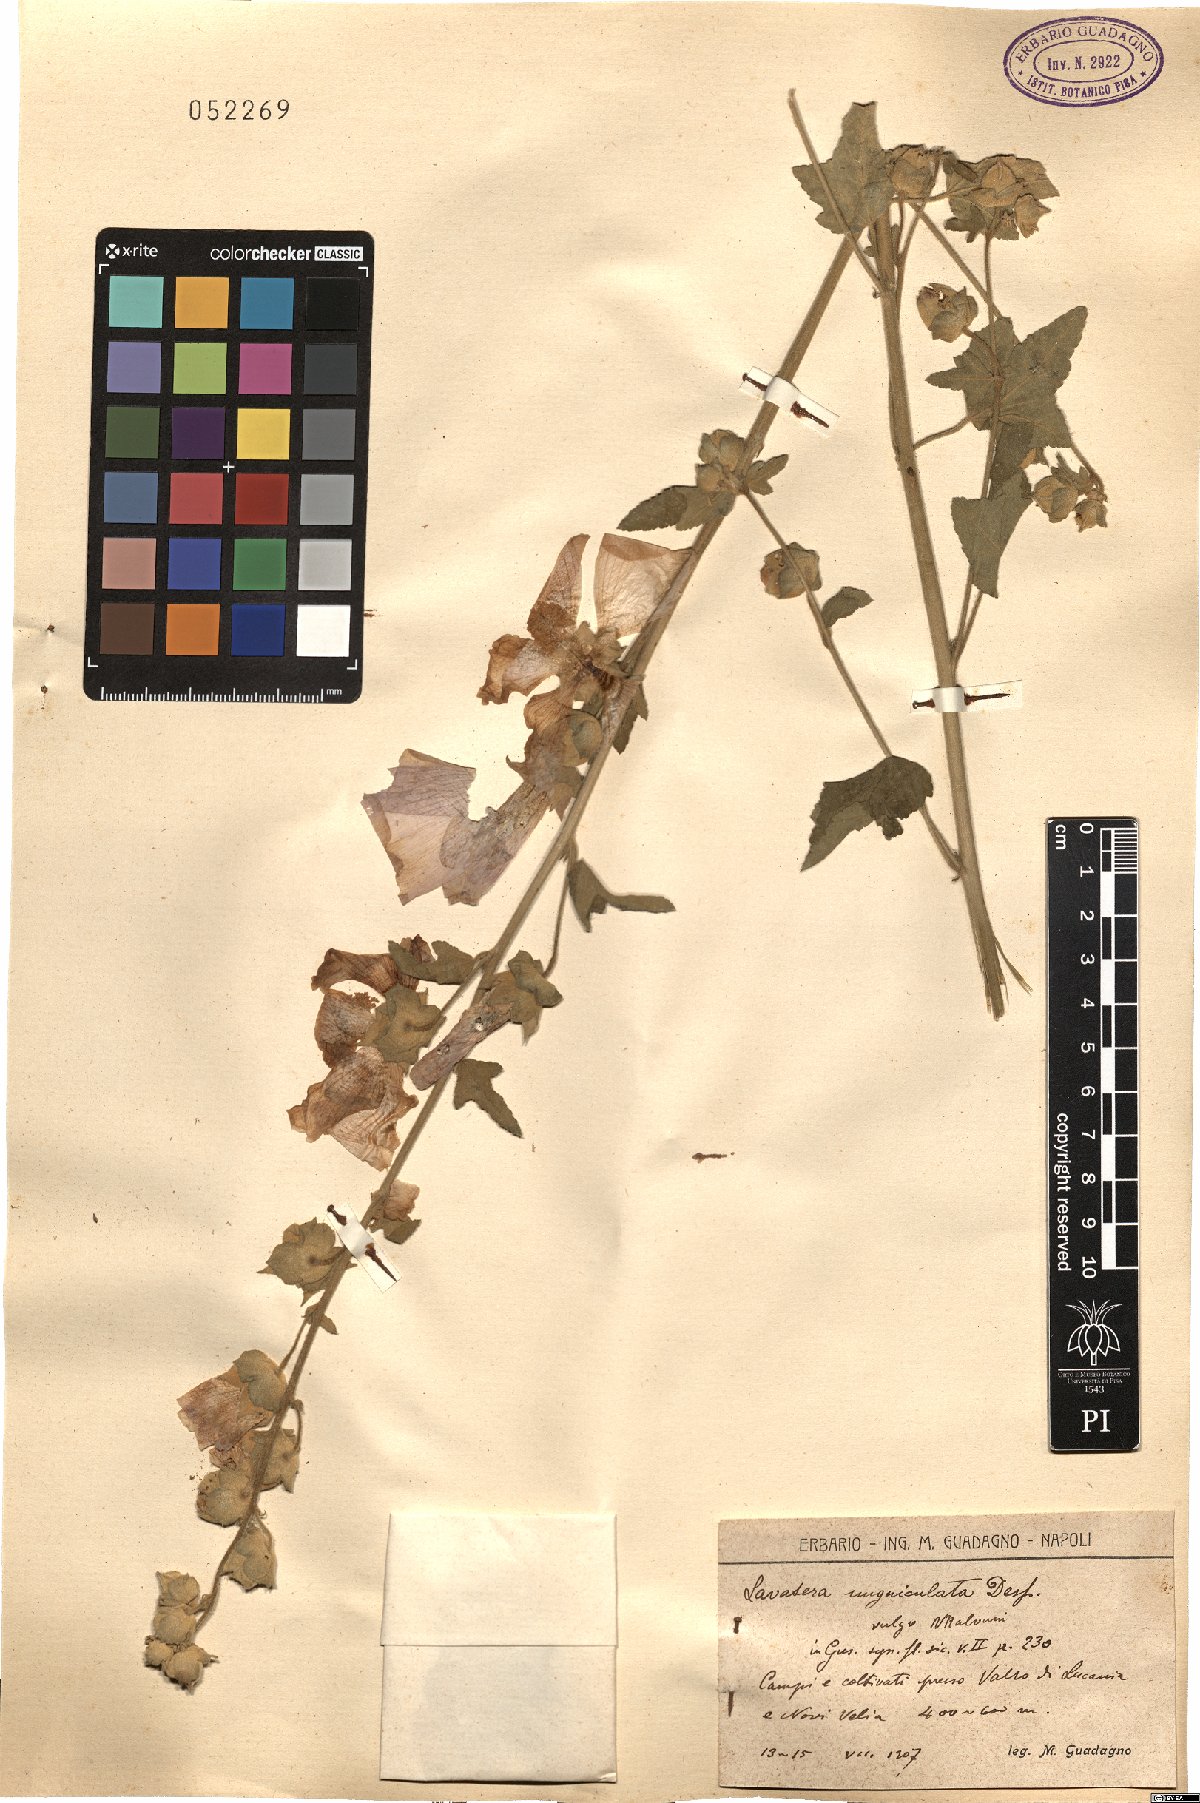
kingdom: Plantae
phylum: Tracheophyta
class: Magnoliopsida
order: Malvales
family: Malvaceae
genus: Malva
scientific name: Malva unguiculata
